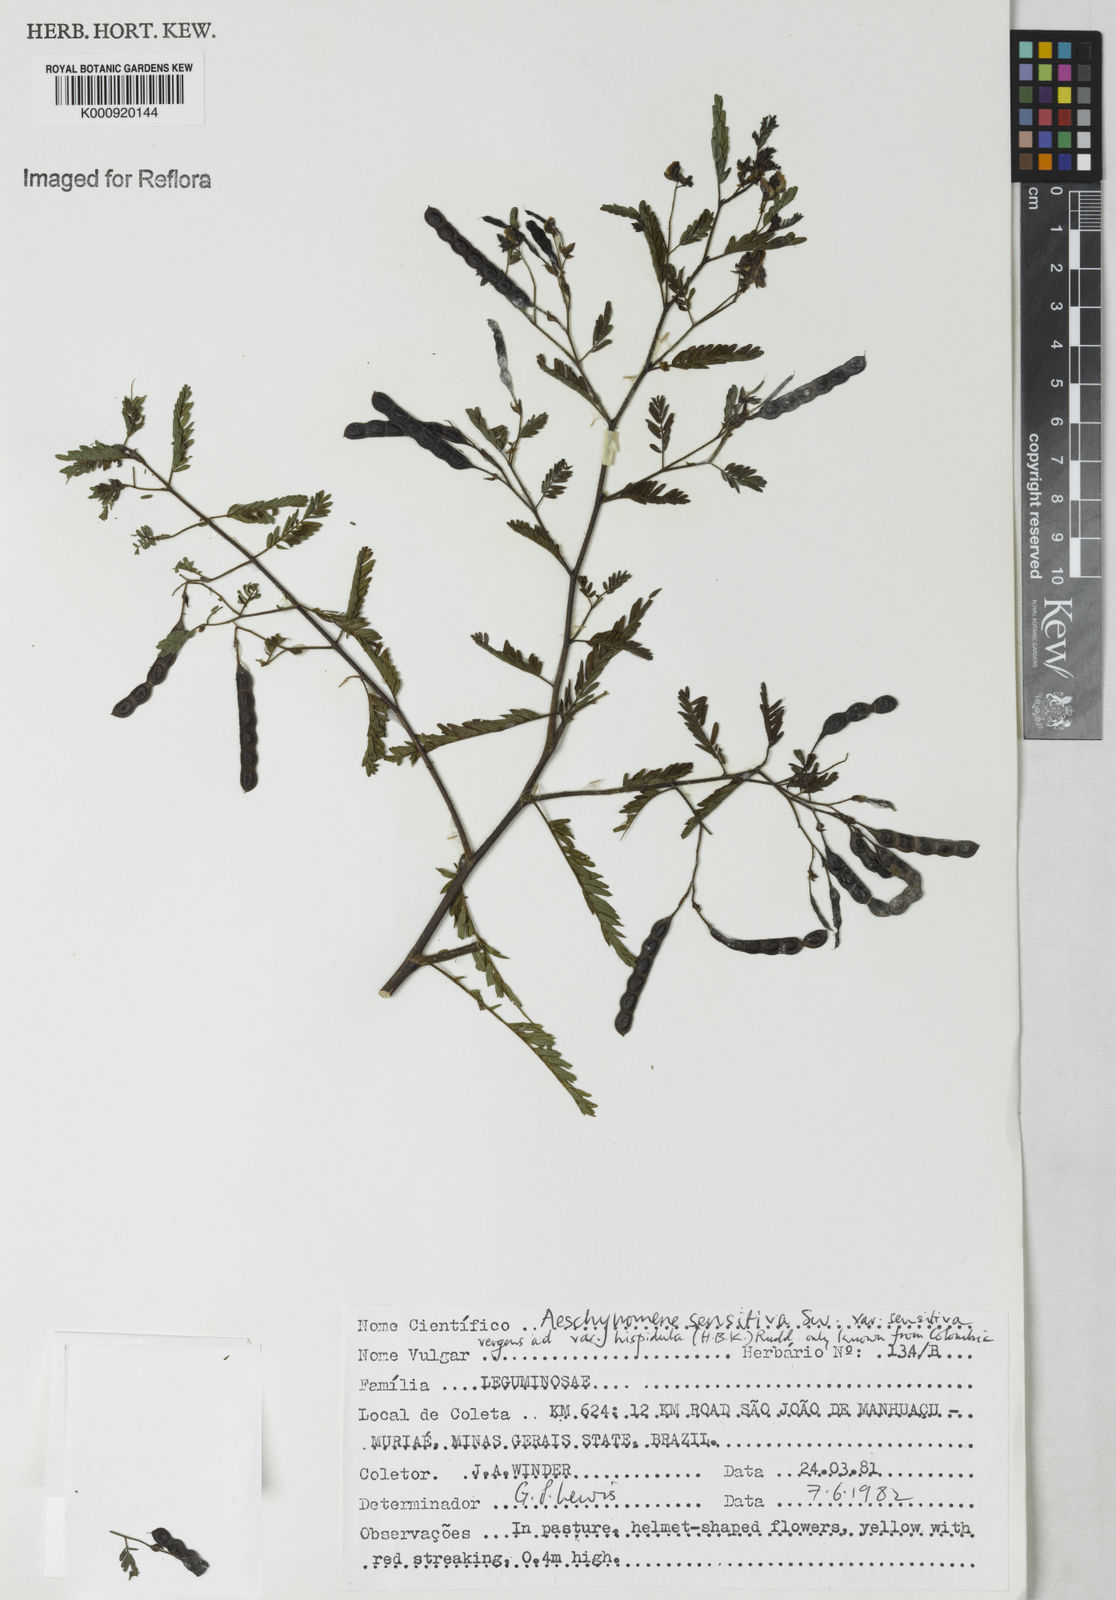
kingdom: Plantae
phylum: Tracheophyta
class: Magnoliopsida
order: Fabales
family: Fabaceae
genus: Aeschynomene
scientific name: Aeschynomene rudis
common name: Rough joint-vetch
